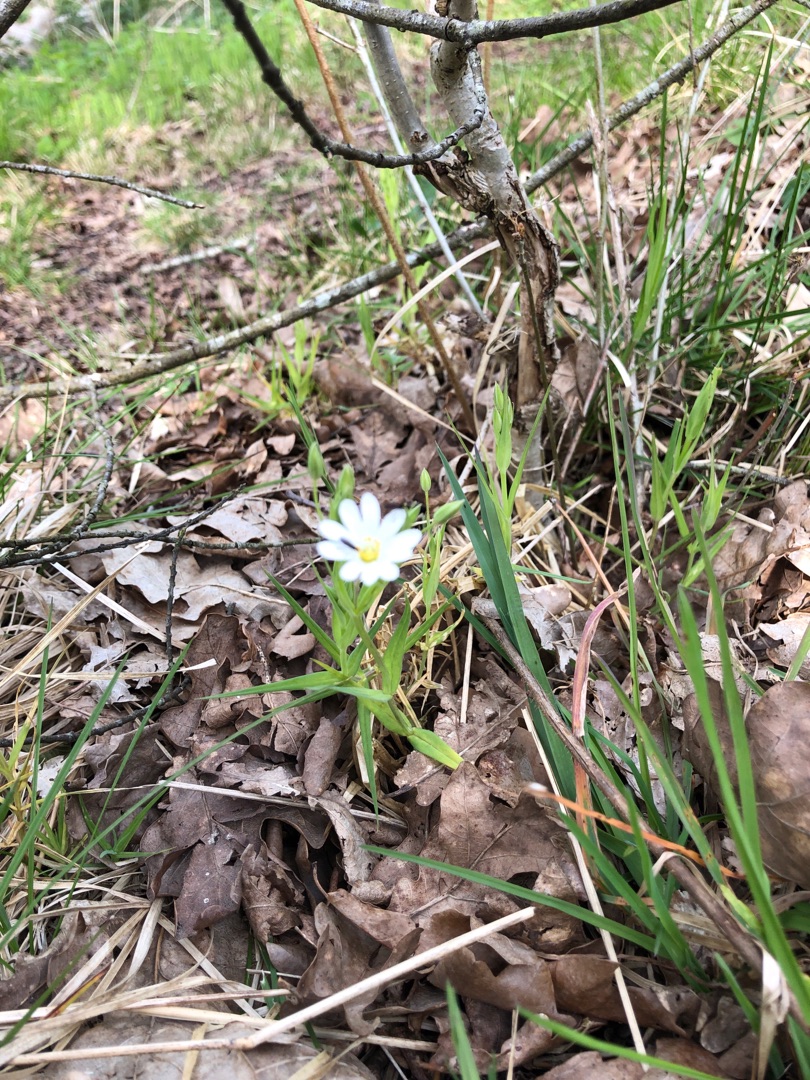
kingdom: Plantae
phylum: Tracheophyta
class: Magnoliopsida
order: Caryophyllales
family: Caryophyllaceae
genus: Rabelera
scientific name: Rabelera holostea
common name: Stor fladstjerne
